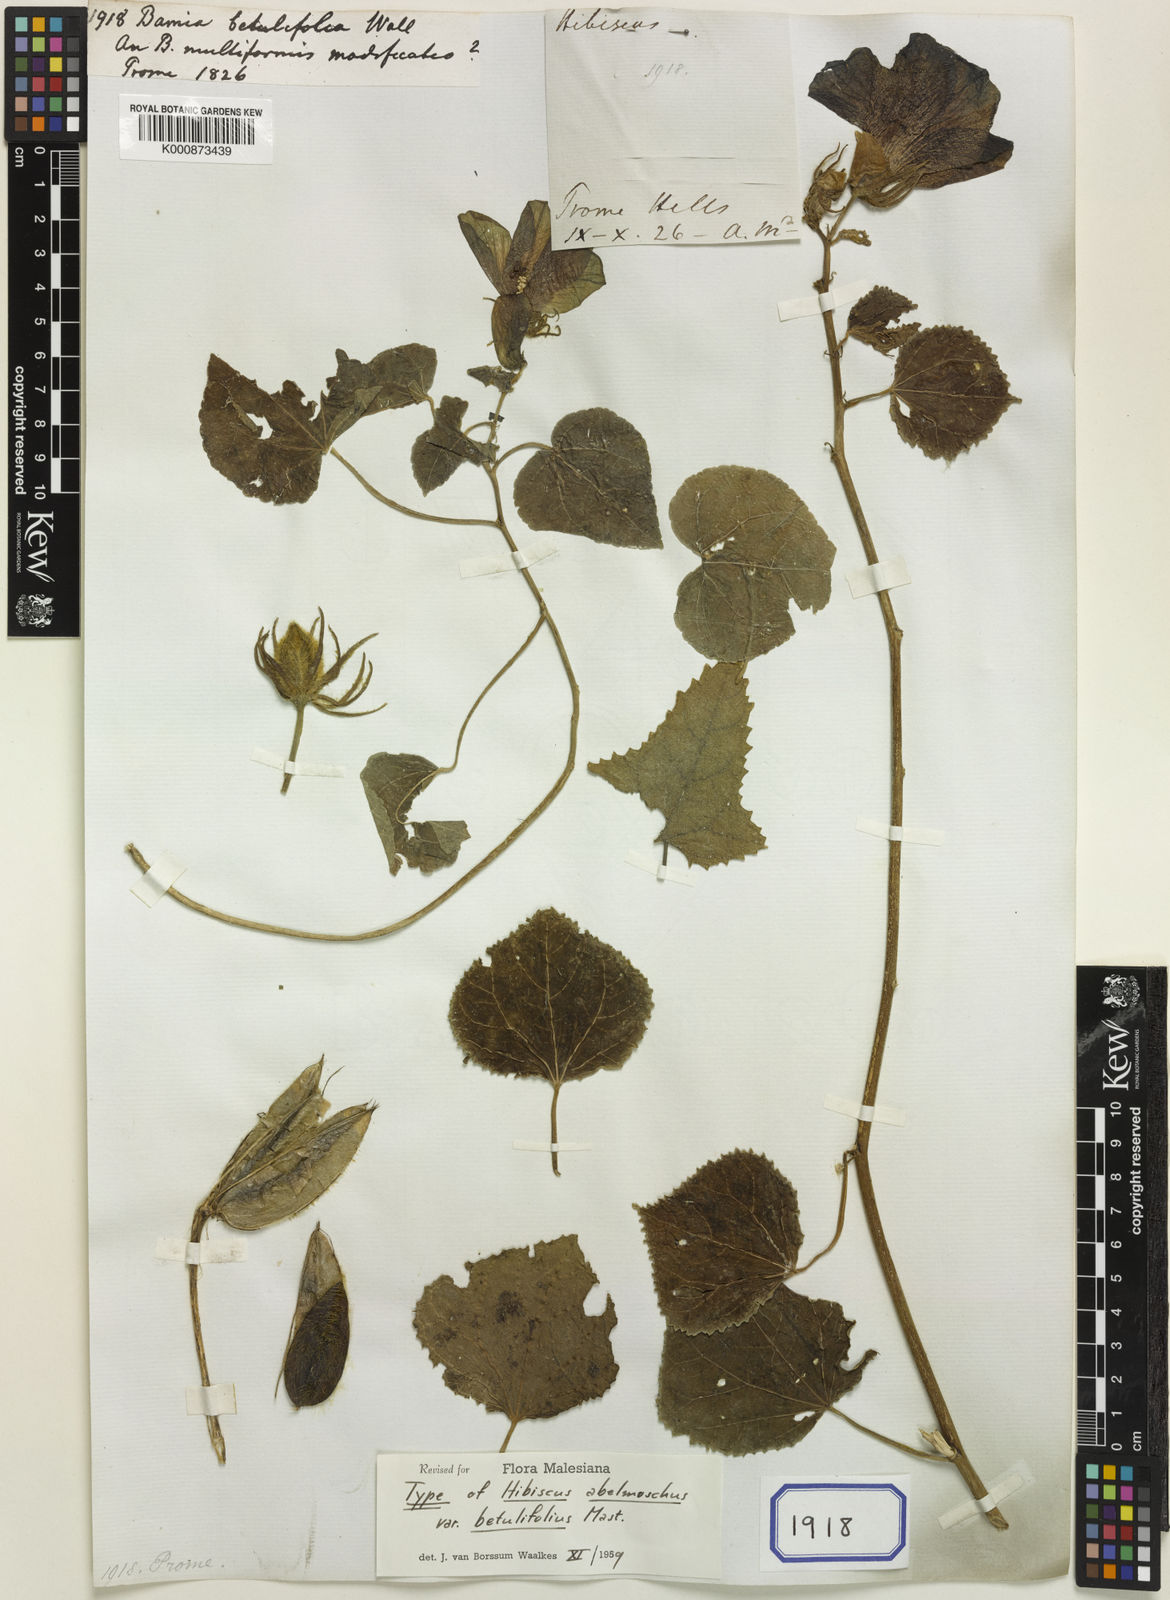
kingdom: Plantae
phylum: Tracheophyta
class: Magnoliopsida
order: Malvales
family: Malvaceae
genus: Abelmoschus
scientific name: Abelmoschus moschatus
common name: Musk okra
